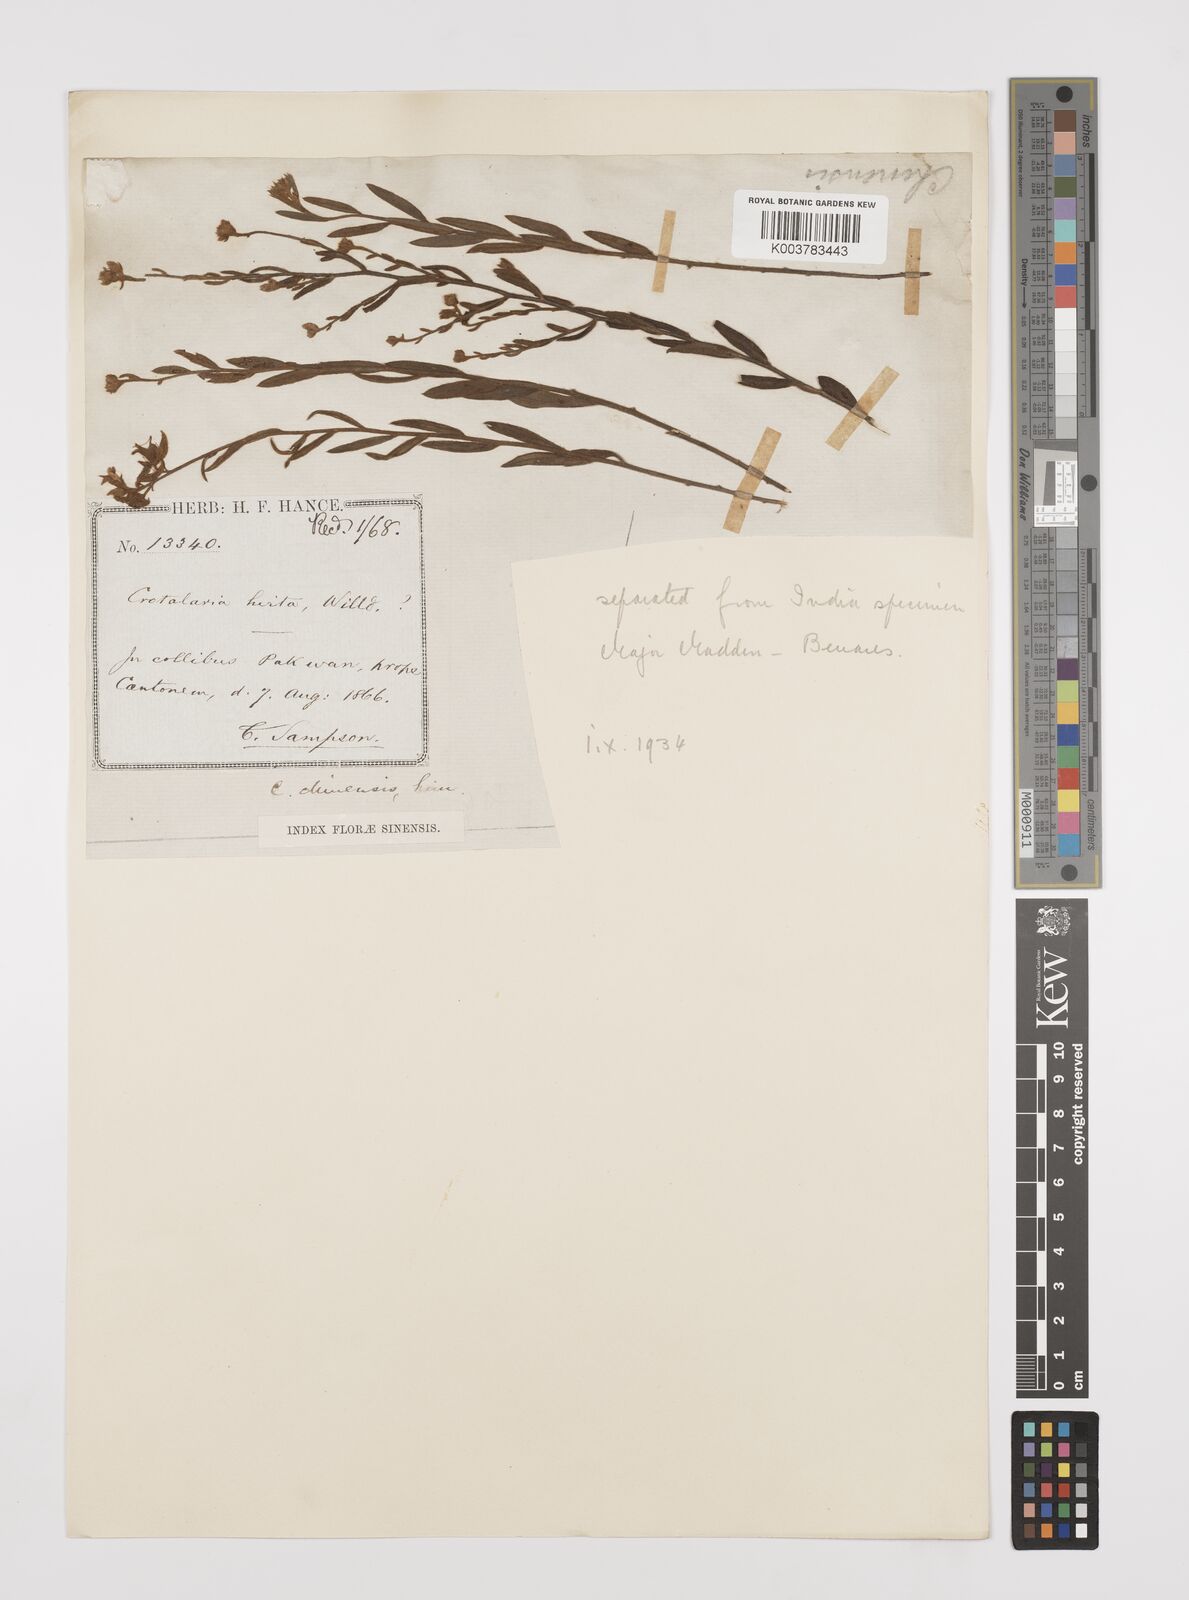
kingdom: Plantae
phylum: Tracheophyta
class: Magnoliopsida
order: Fabales
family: Fabaceae
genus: Crotalaria
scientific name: Crotalaria chinensis
